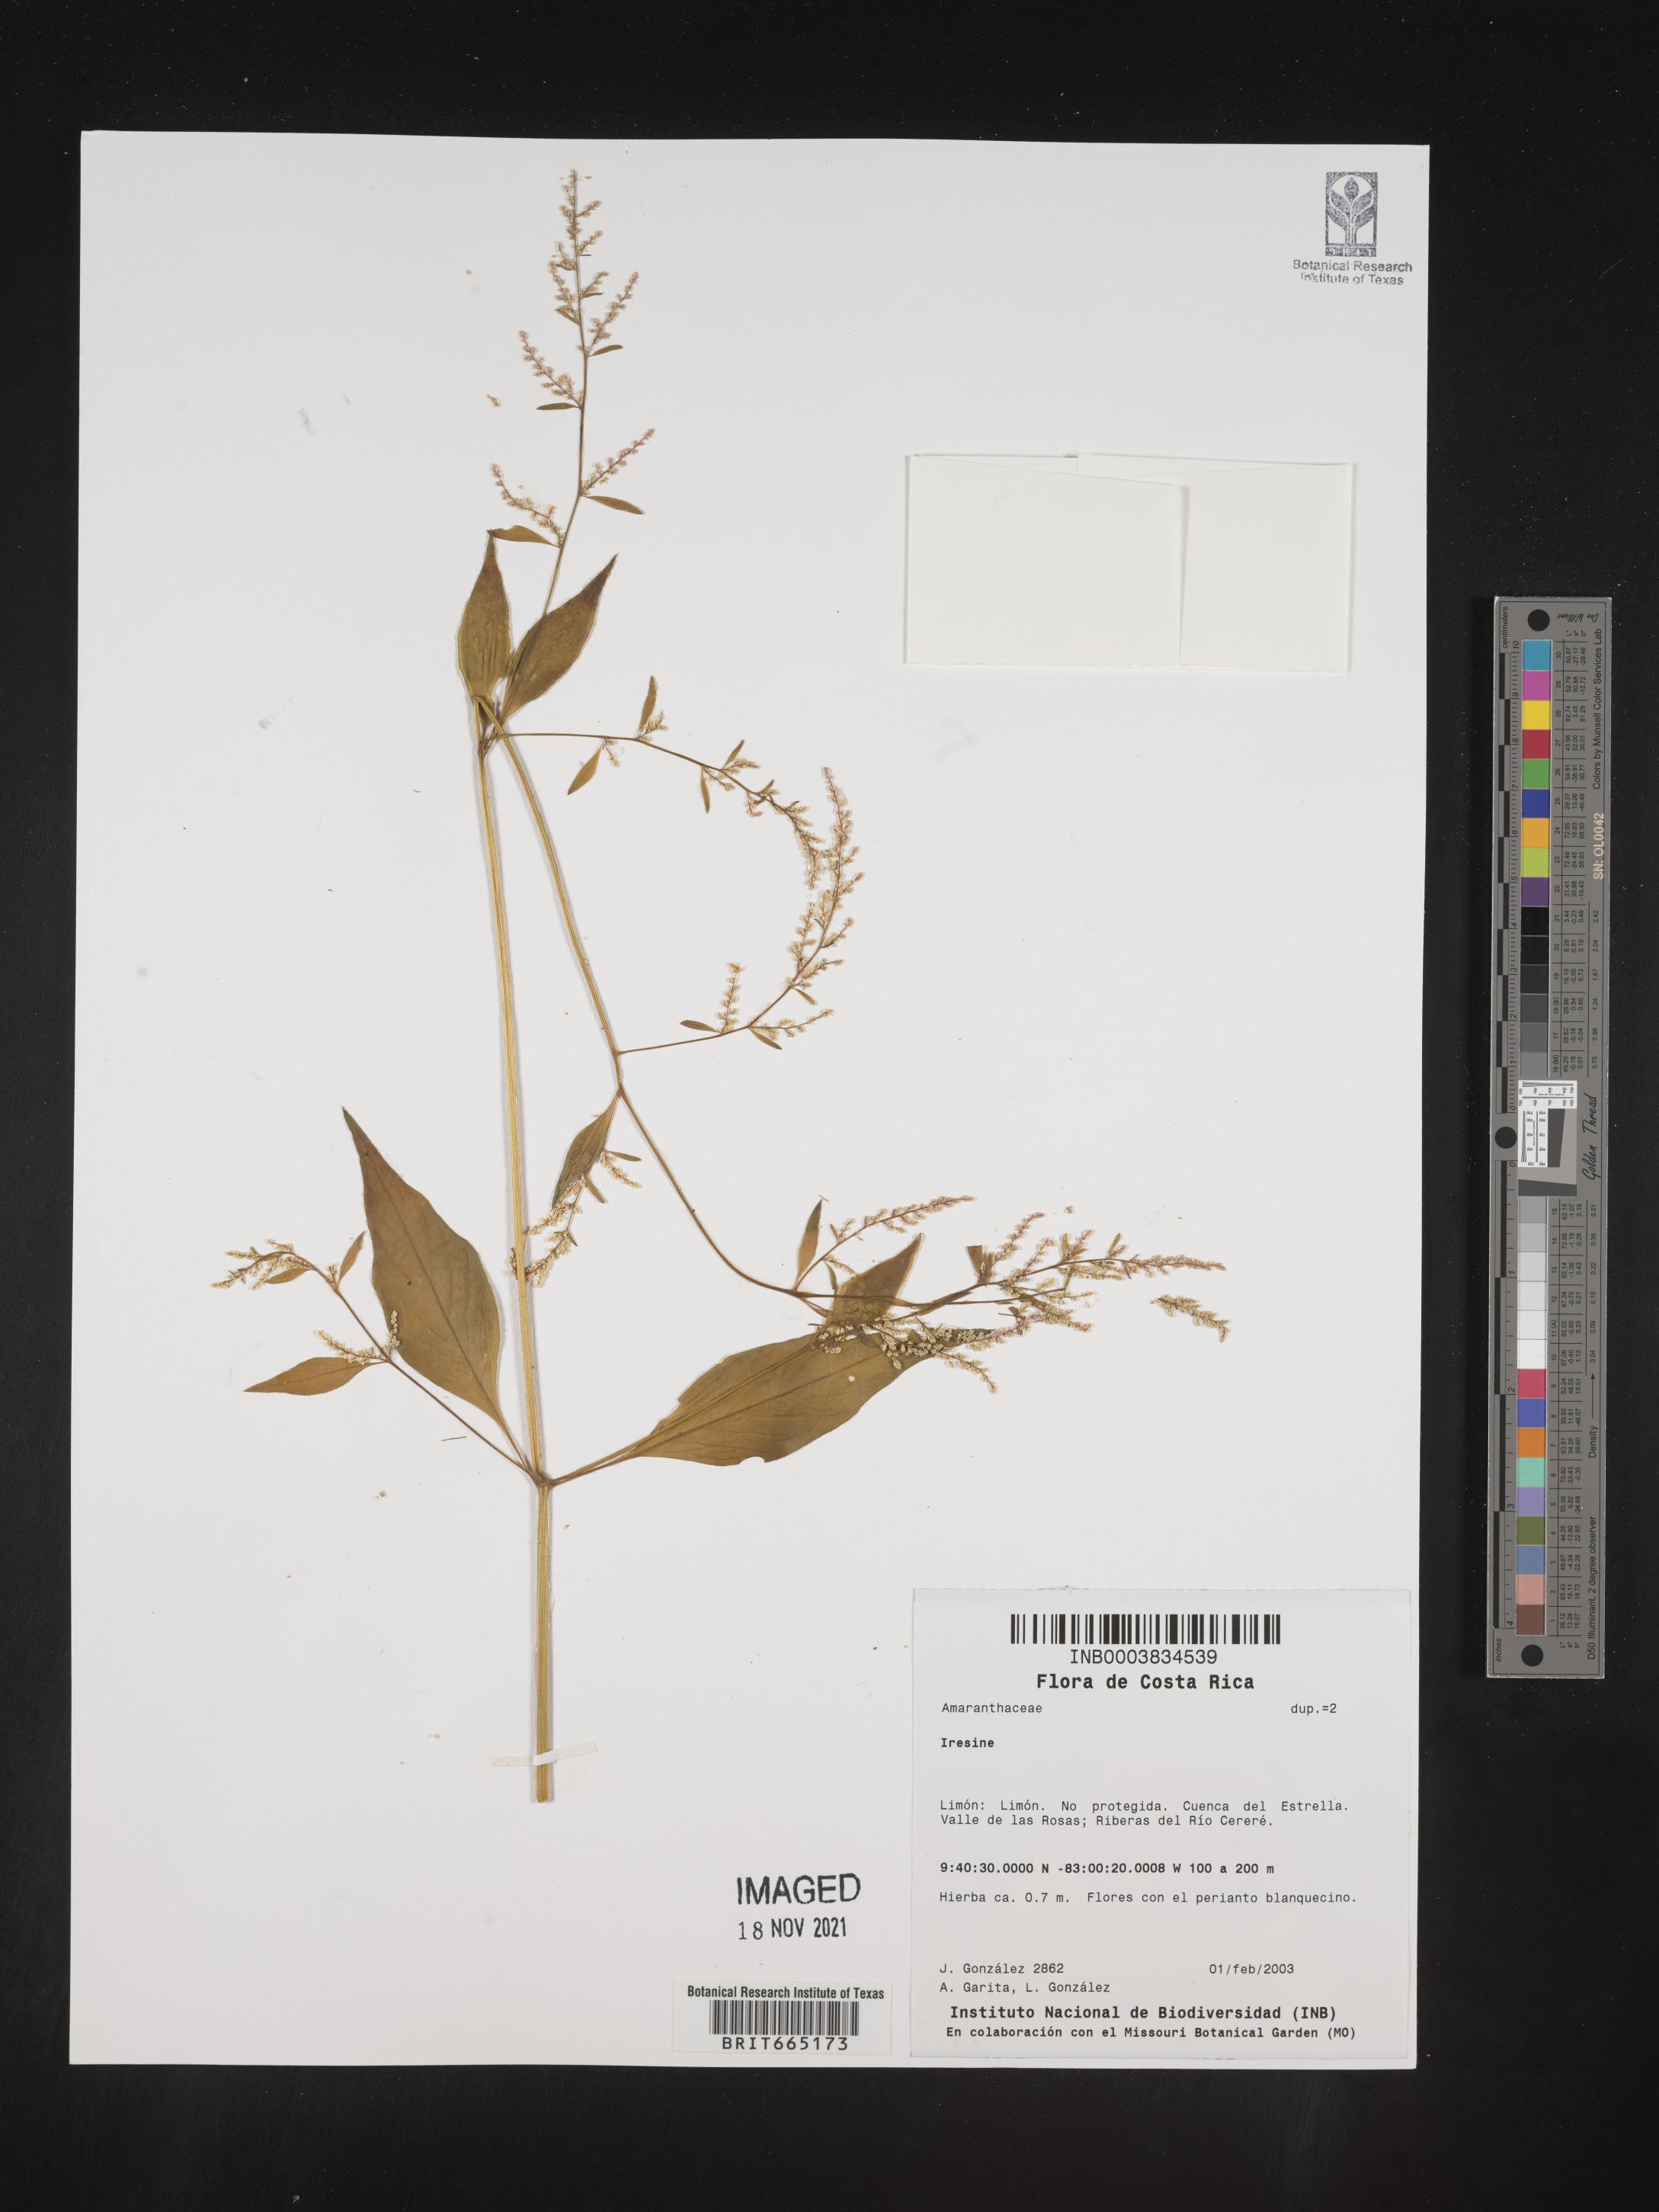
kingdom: Plantae
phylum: Tracheophyta
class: Magnoliopsida
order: Caryophyllales
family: Amaranthaceae
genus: Iresine
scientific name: Iresine
